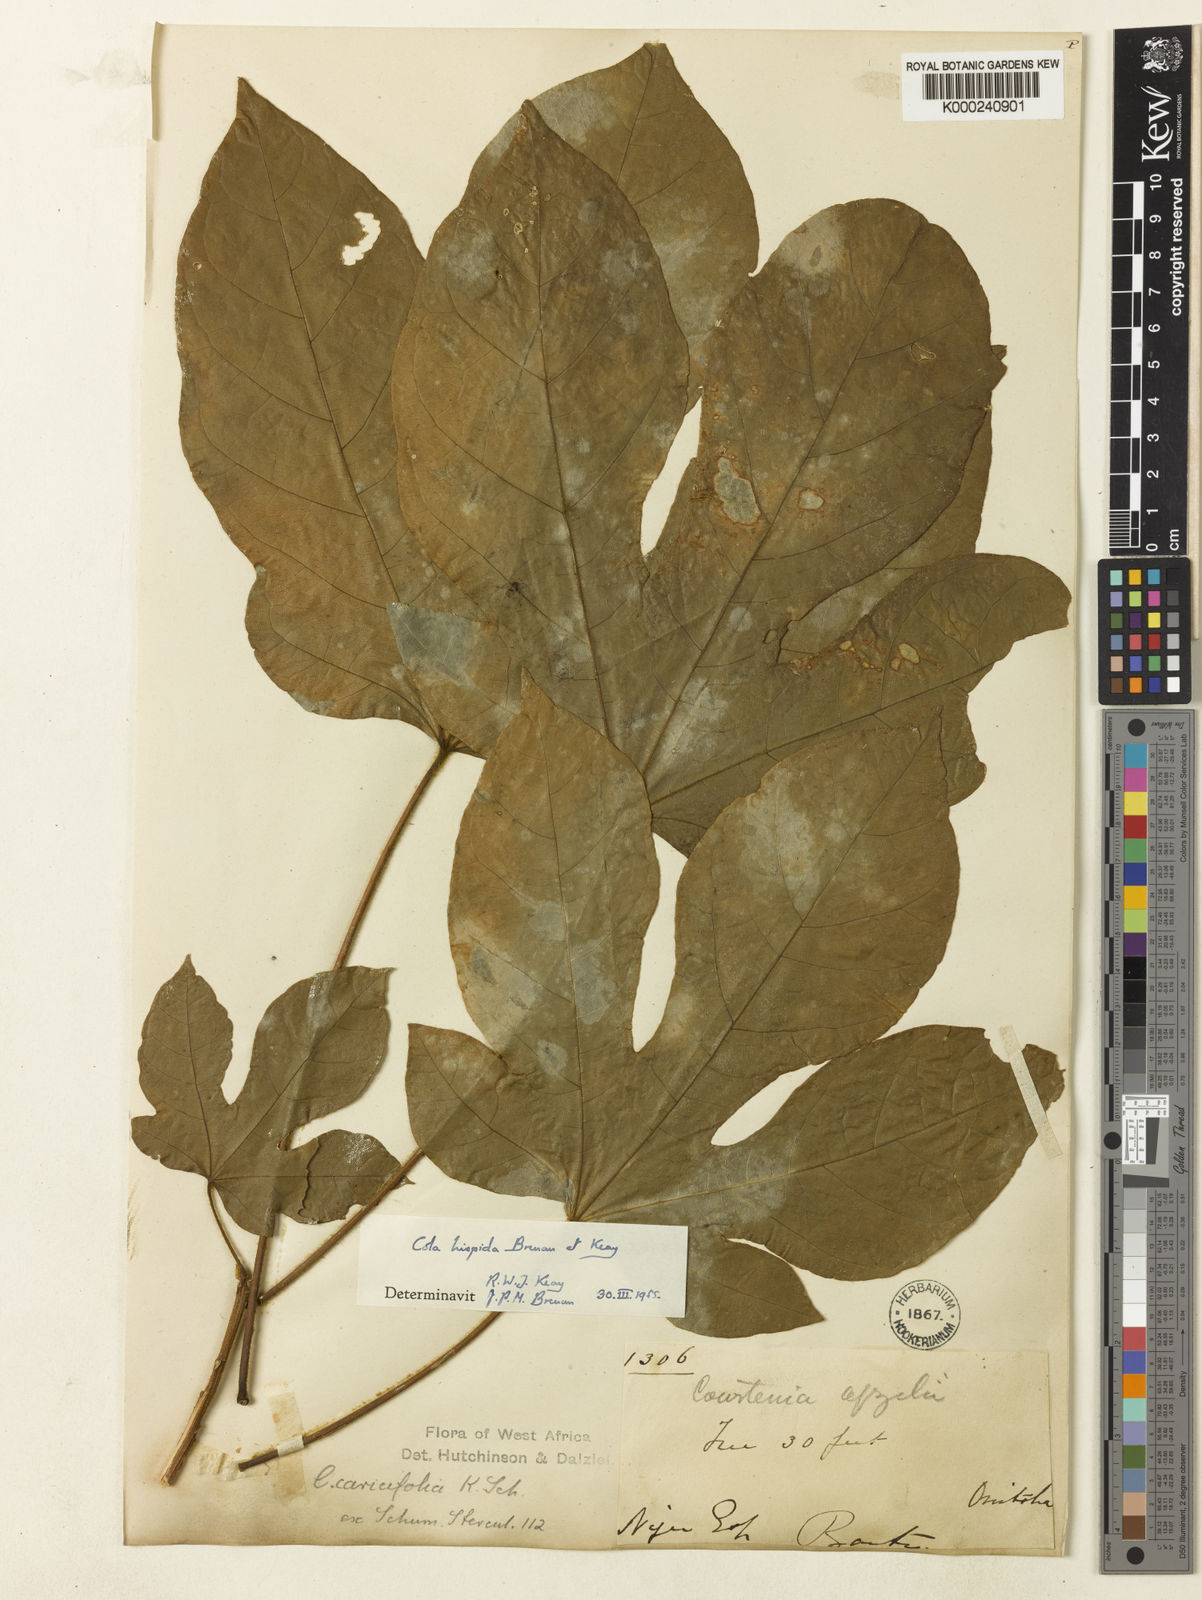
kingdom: Plantae
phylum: Tracheophyta
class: Magnoliopsida
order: Malvales
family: Malvaceae
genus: Cola
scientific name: Cola hispida
